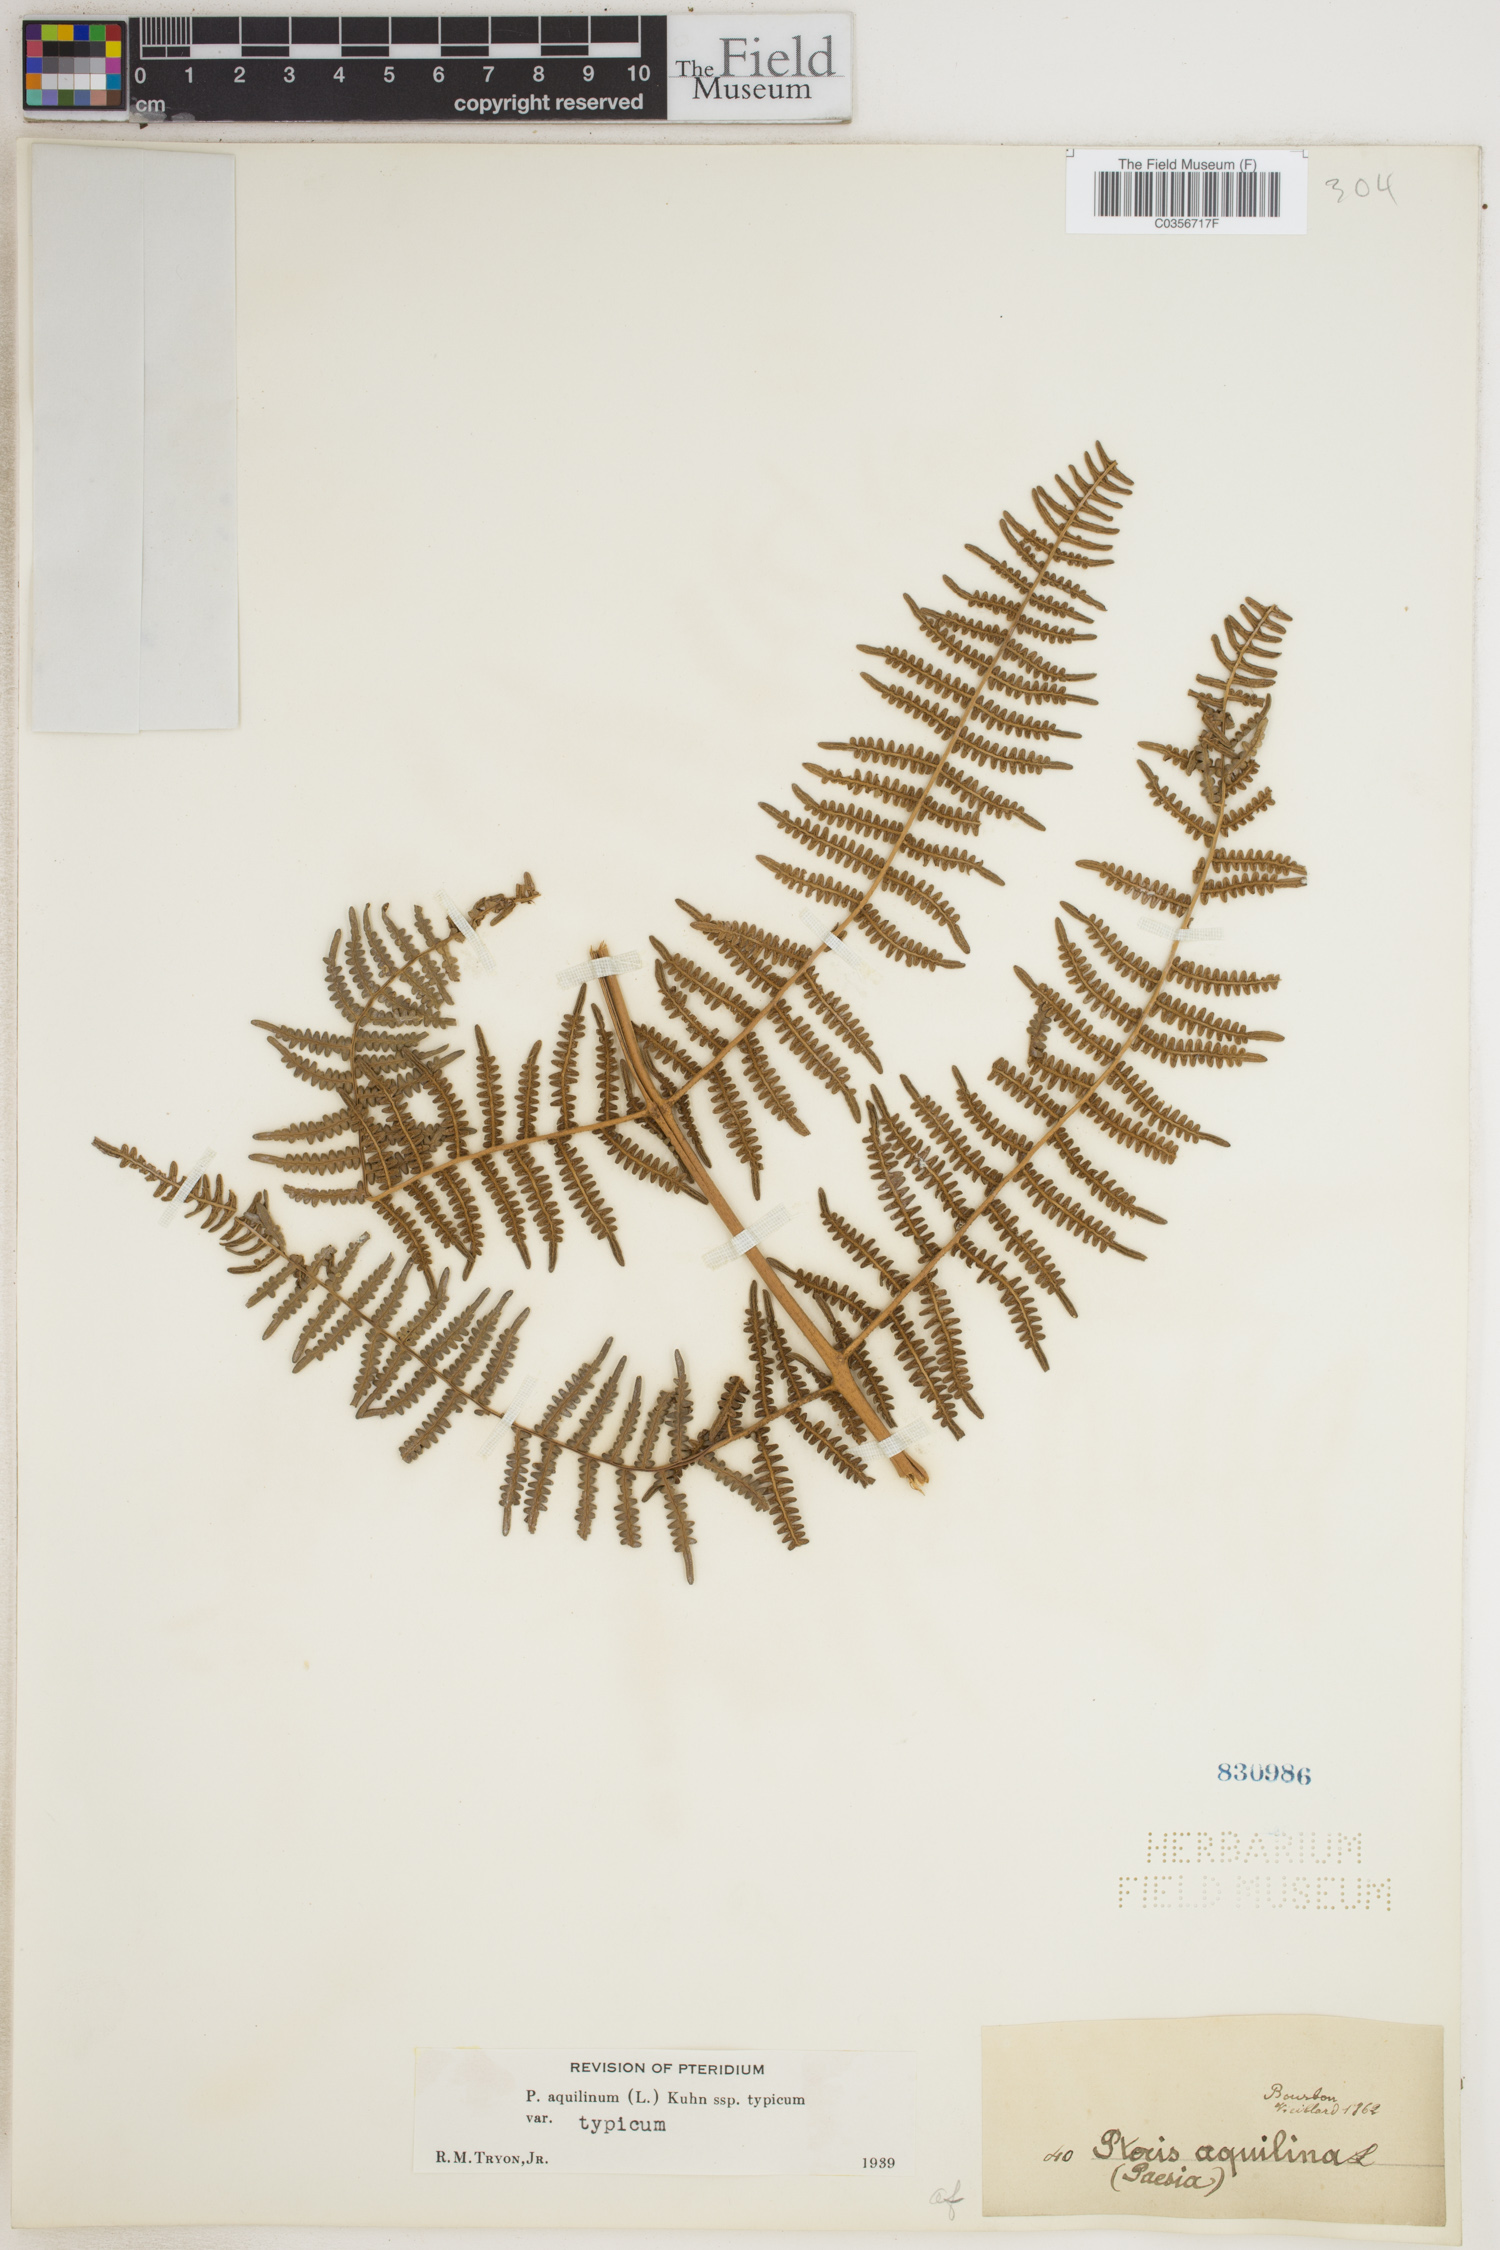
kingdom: Plantae
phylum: Tracheophyta
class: Polypodiopsida
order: Polypodiales
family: Dennstaedtiaceae
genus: Pteridium
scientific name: Pteridium aquilinum
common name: Bracken
